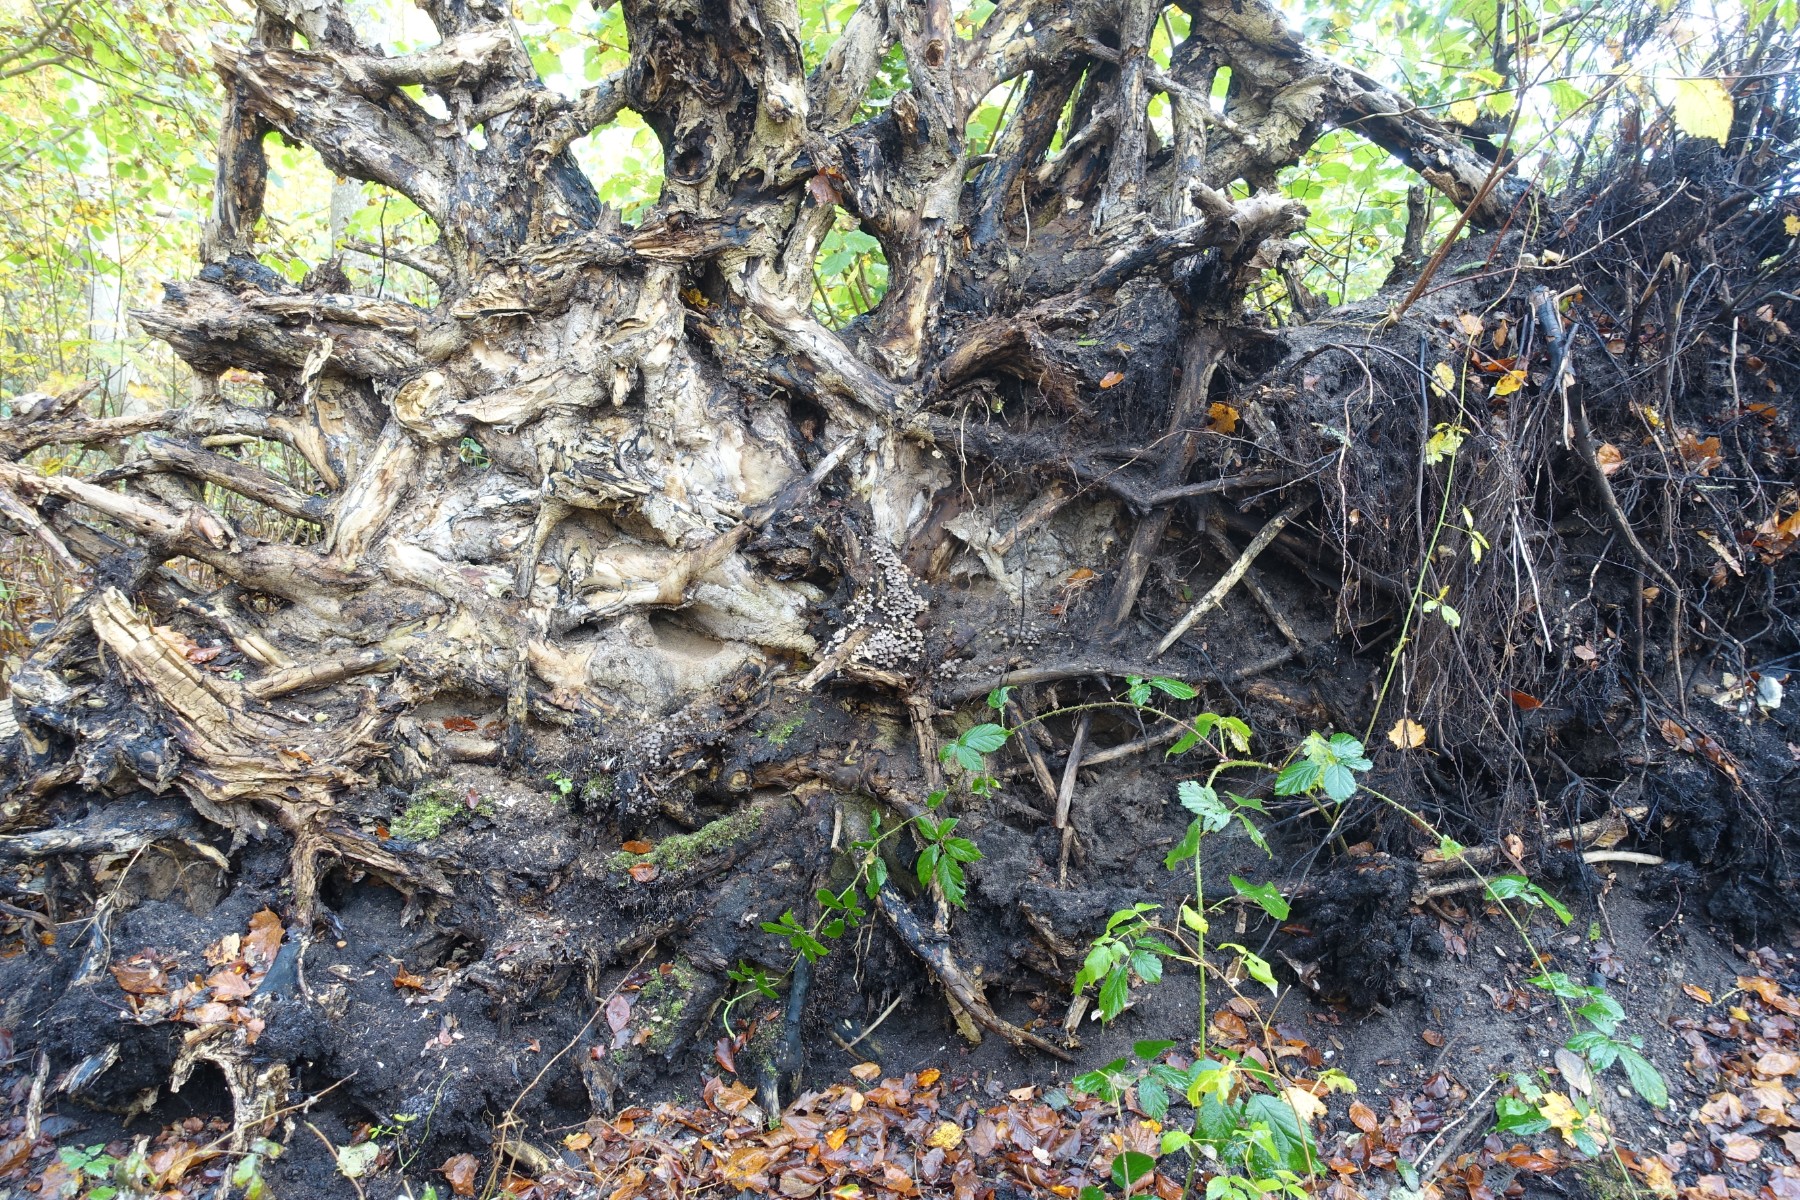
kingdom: Fungi
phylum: Basidiomycota
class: Agaricomycetes
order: Agaricales
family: Psathyrellaceae
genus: Coprinellus
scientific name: Coprinellus disseminatus
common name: bredsået blækhat
